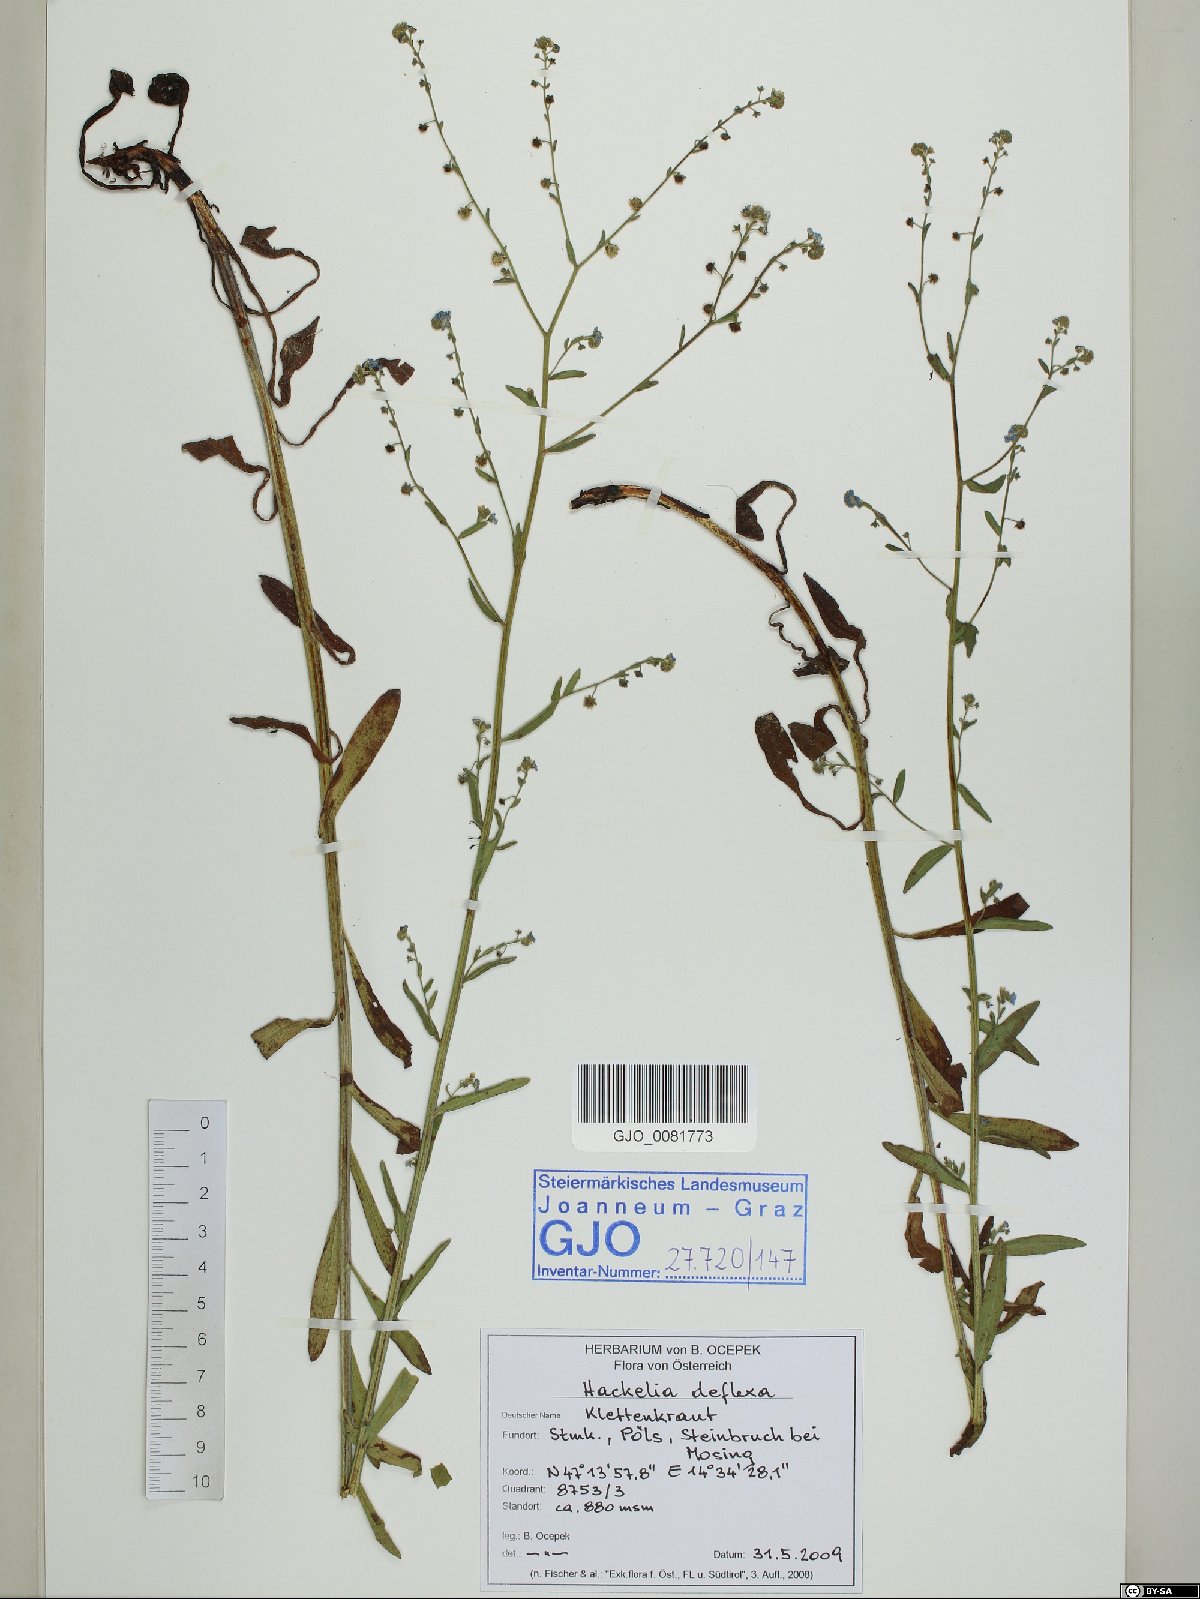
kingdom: Plantae
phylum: Tracheophyta
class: Magnoliopsida
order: Boraginales
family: Boraginaceae
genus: Hackelia
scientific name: Hackelia deflexa
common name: Nodding stickseed
